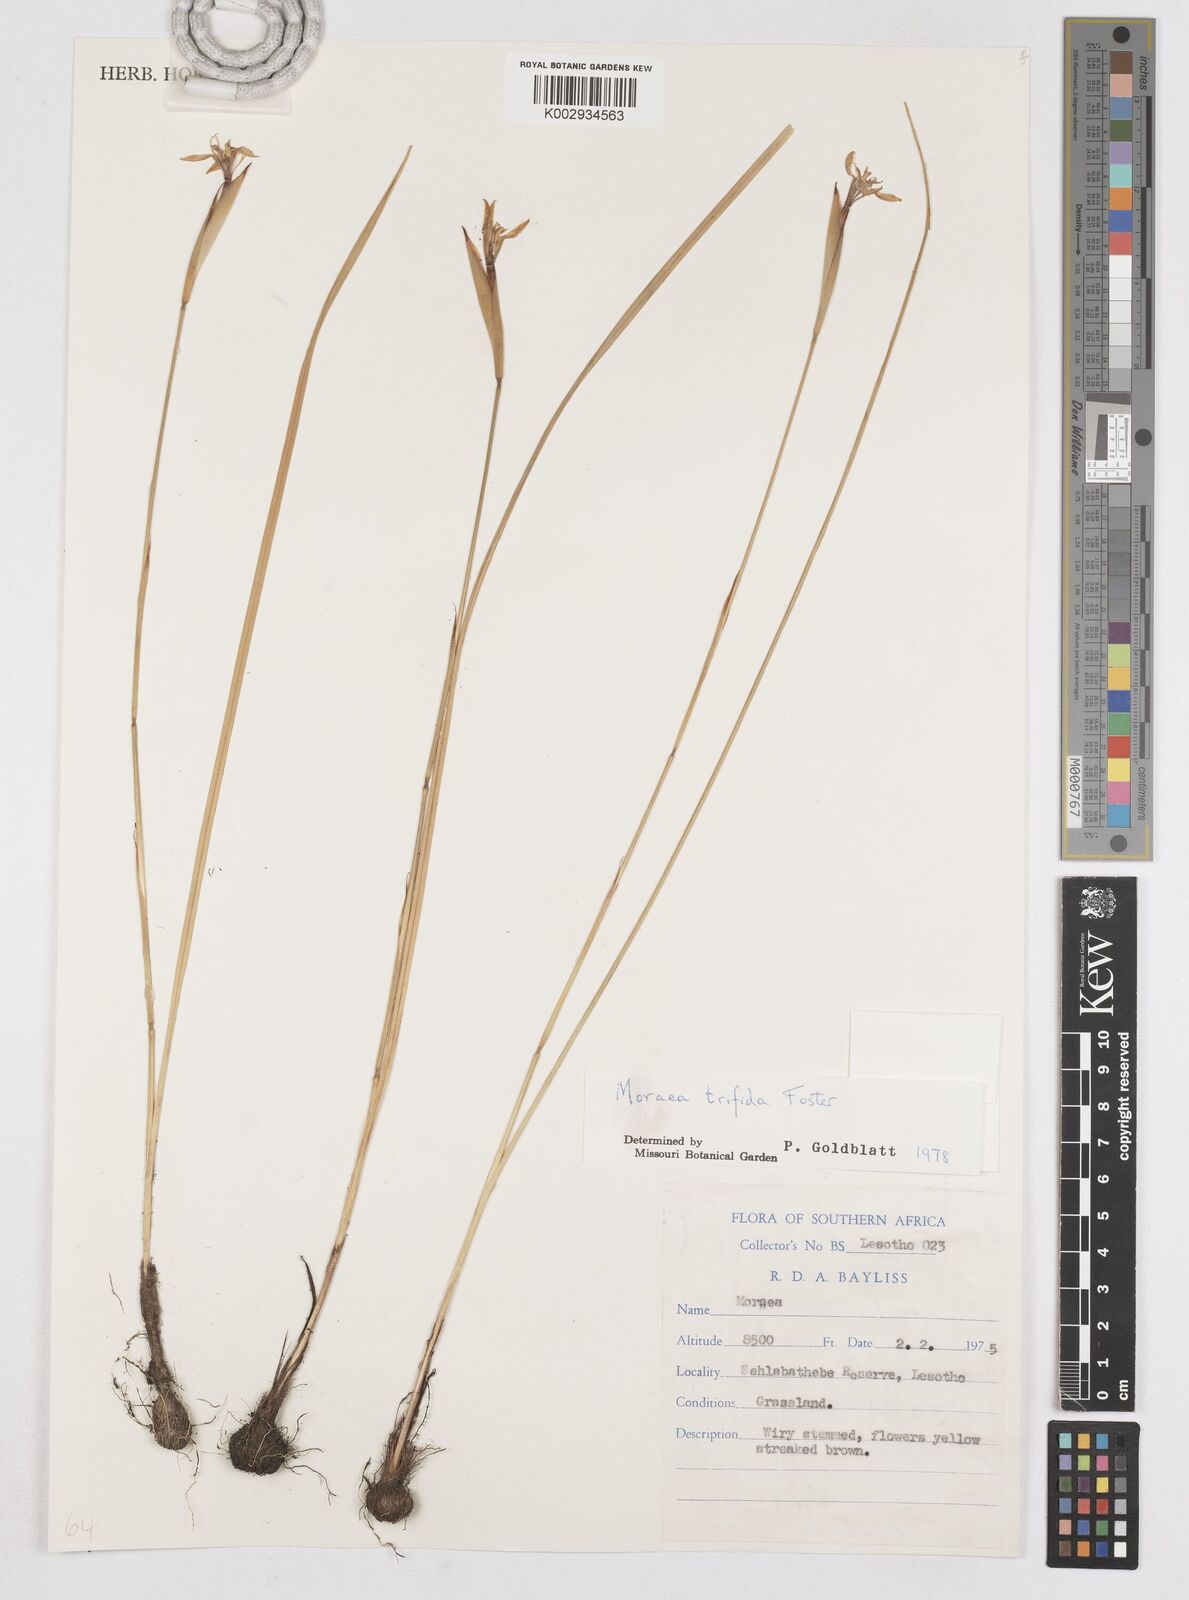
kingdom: Plantae
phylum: Tracheophyta
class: Liliopsida
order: Asparagales
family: Iridaceae
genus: Moraea
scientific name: Moraea trifida
